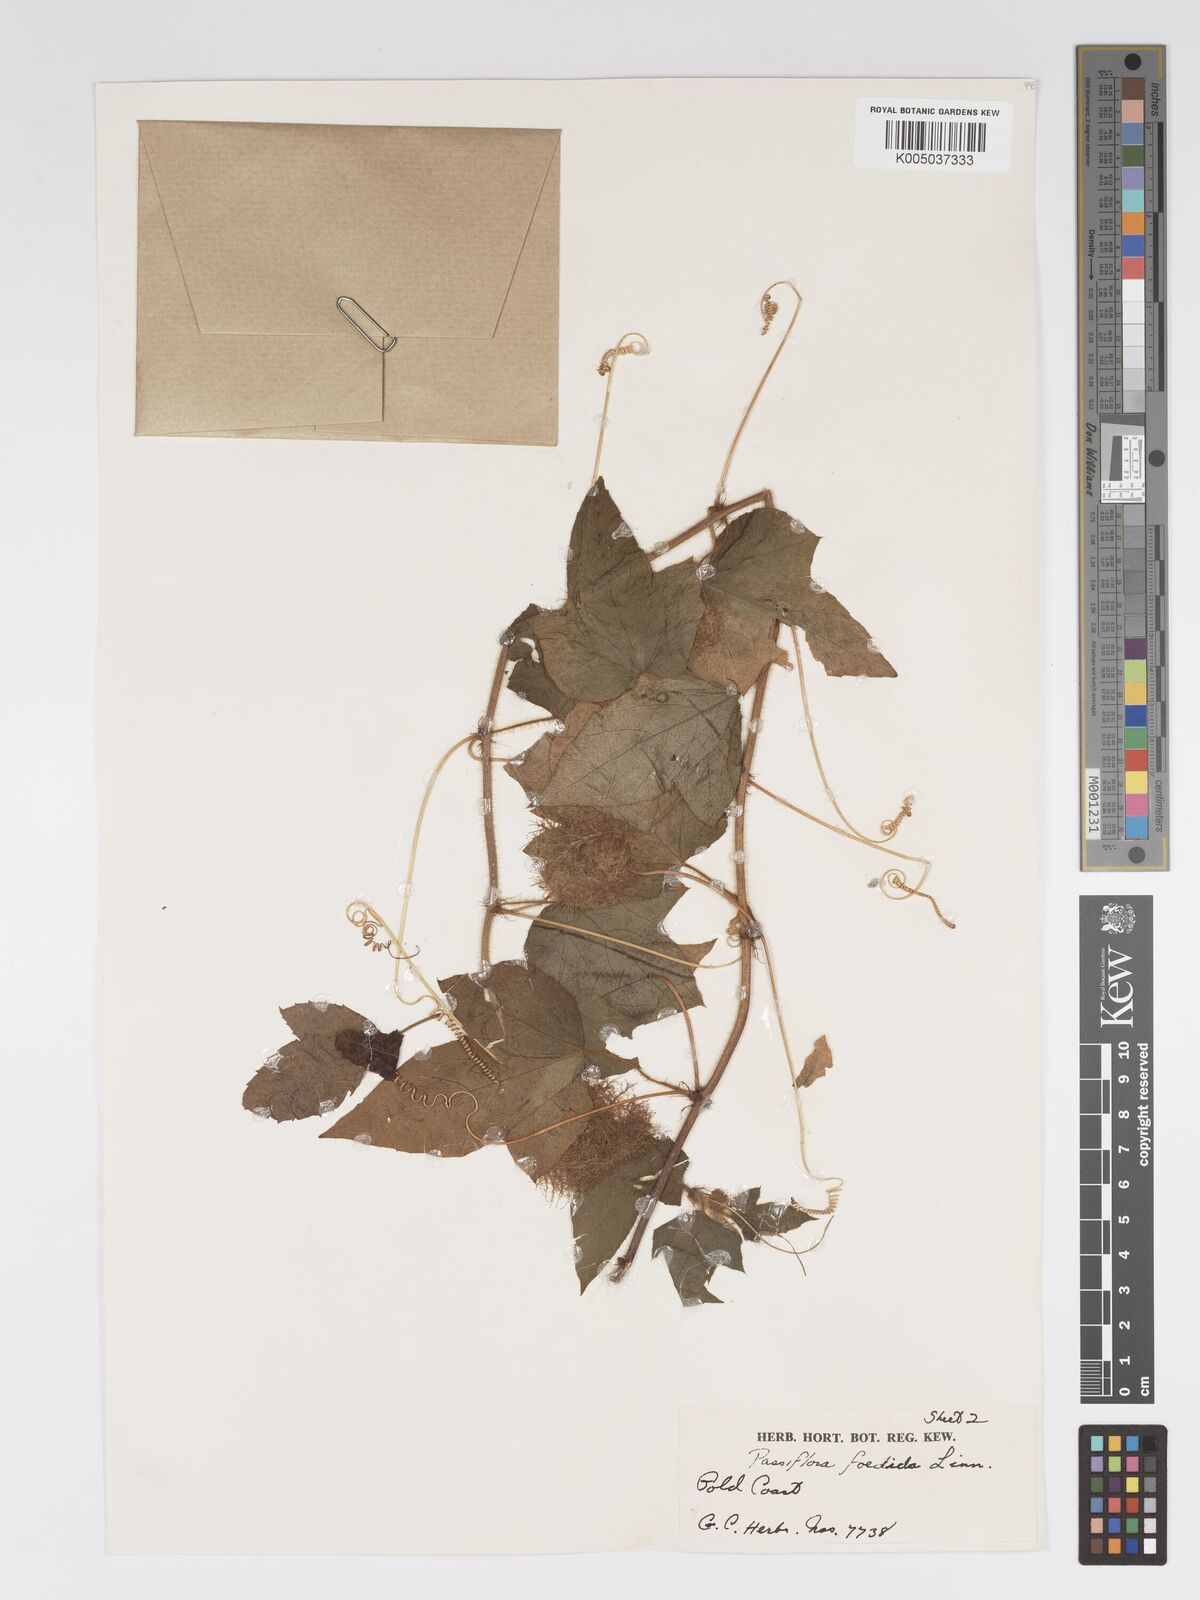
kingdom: Plantae
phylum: Tracheophyta
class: Magnoliopsida
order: Malpighiales
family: Passifloraceae
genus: Passiflora
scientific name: Passiflora foetida
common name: Fetid passionflower
